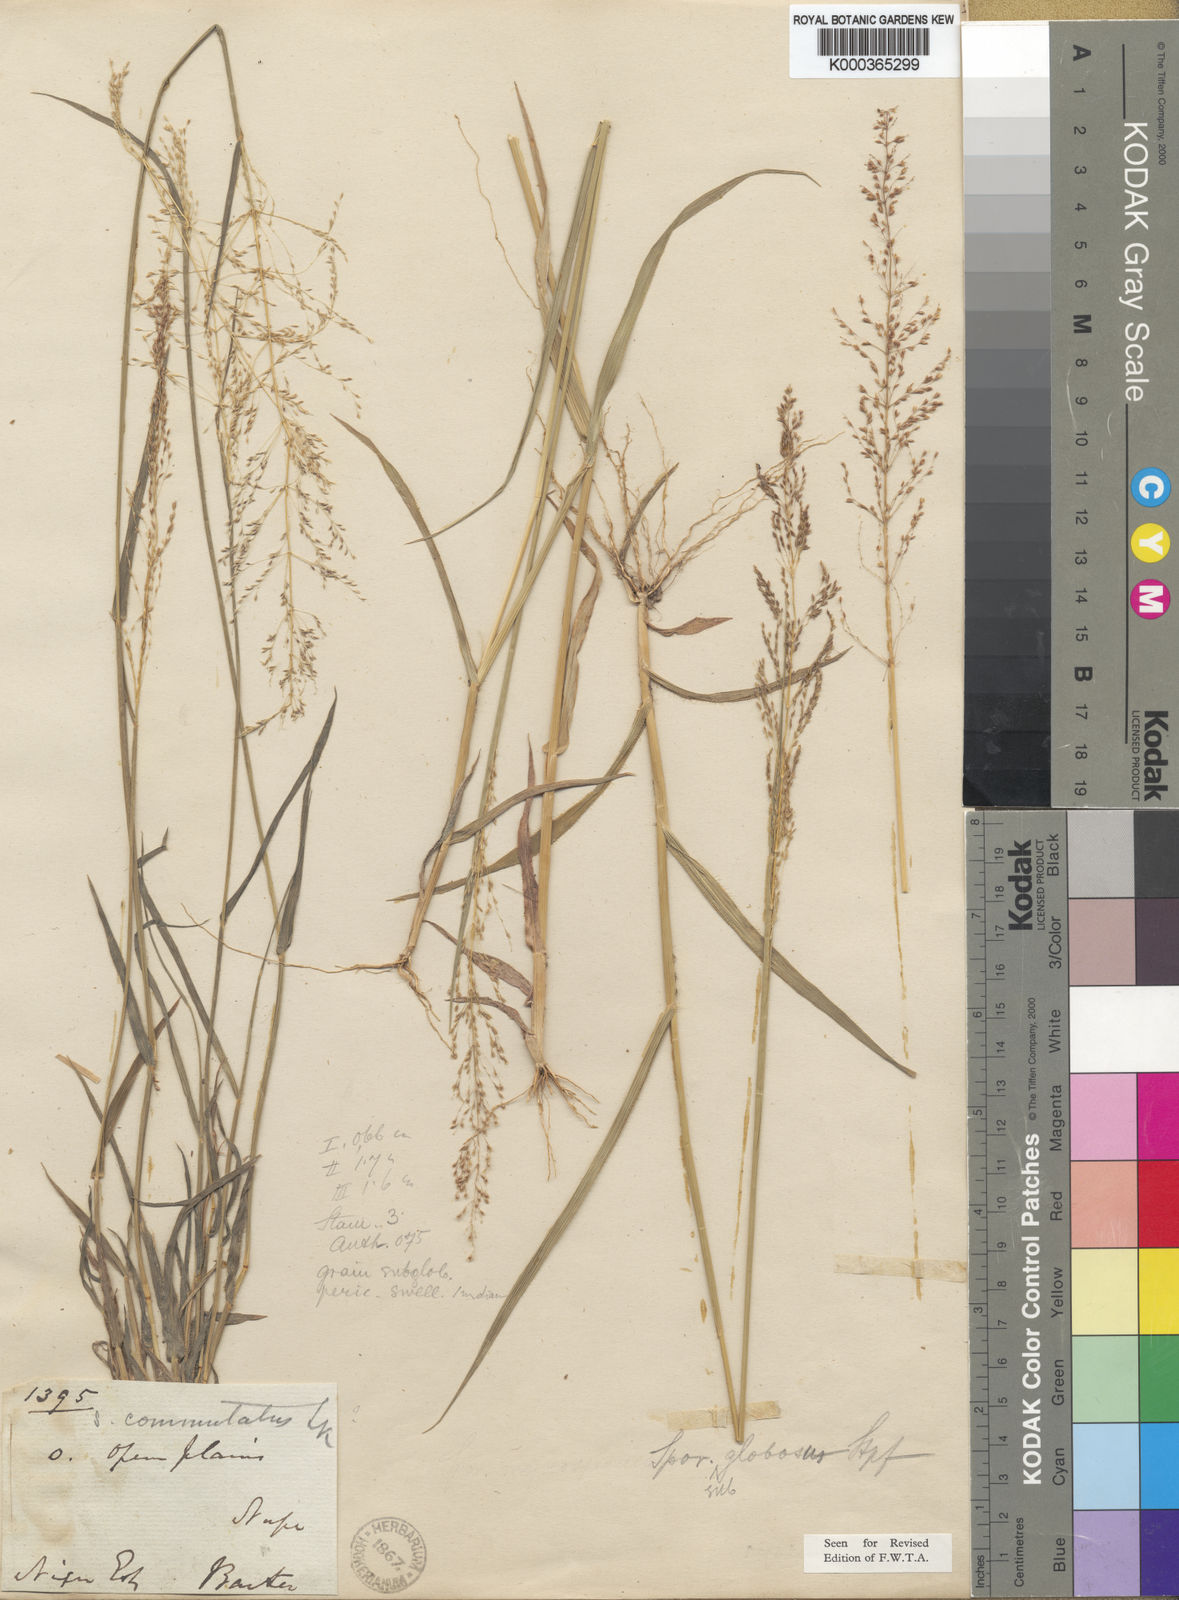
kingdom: Plantae
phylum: Tracheophyta
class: Liliopsida
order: Poales
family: Poaceae
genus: Sporobolus
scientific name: Sporobolus
